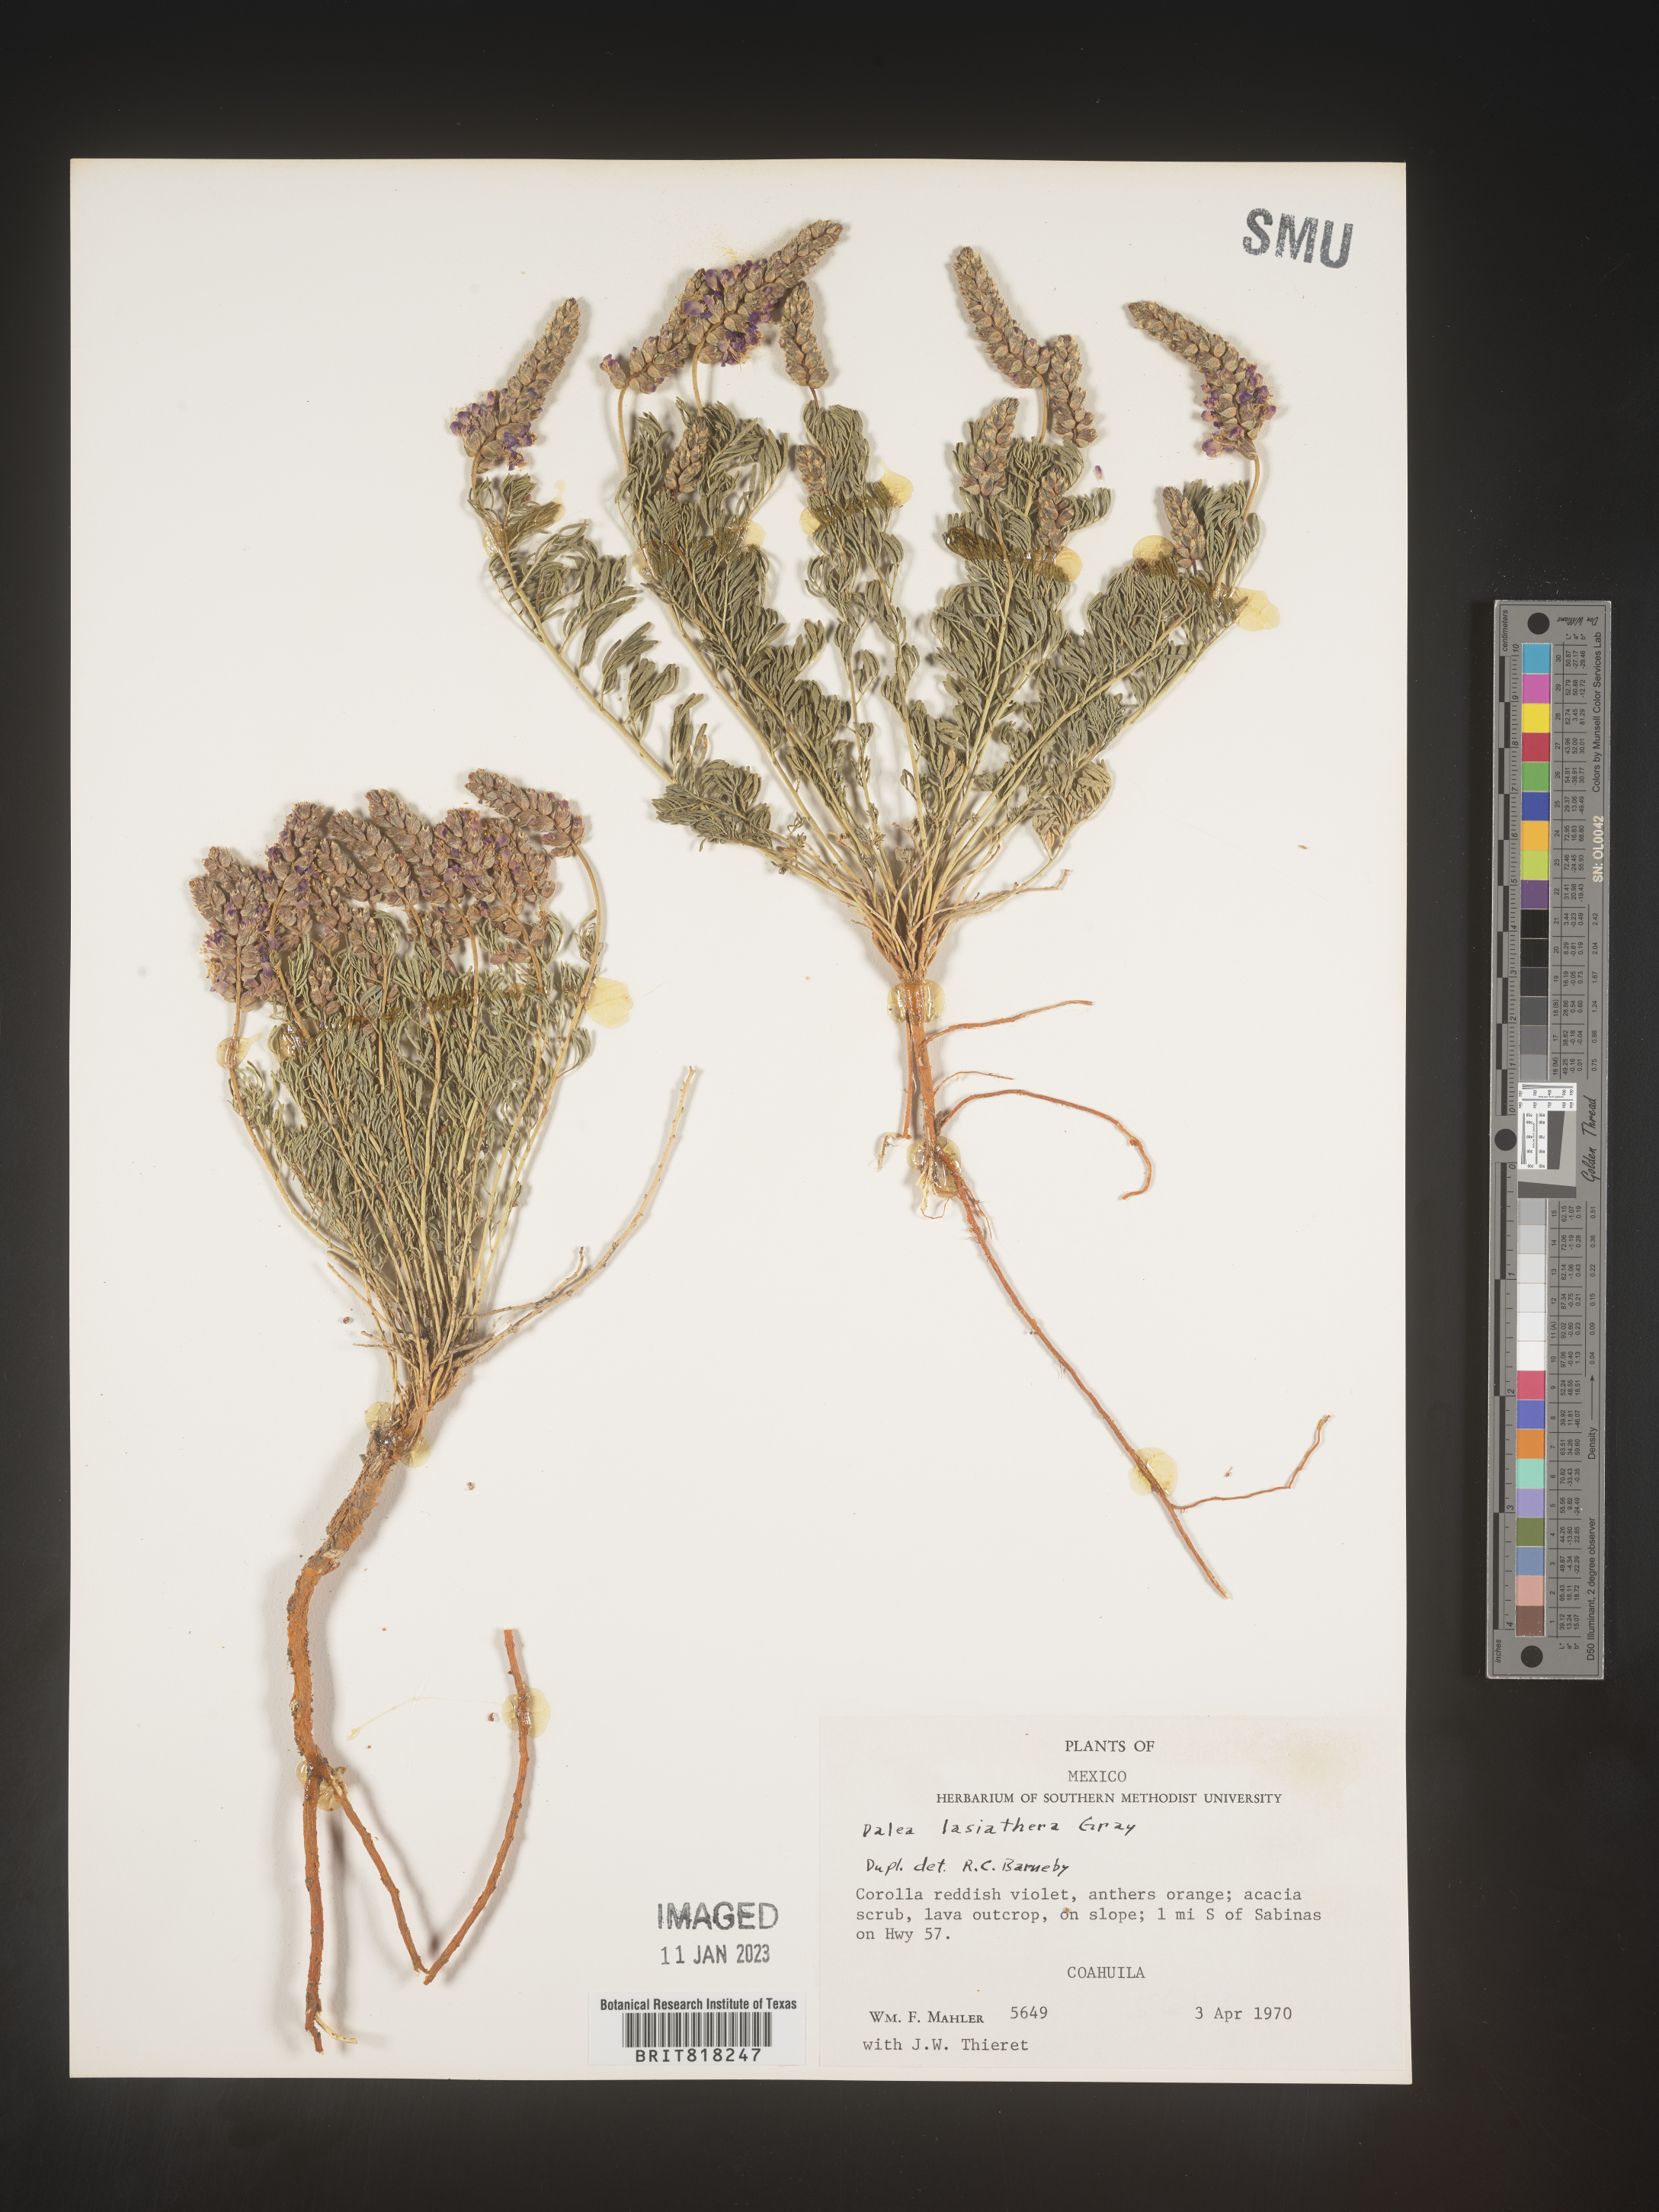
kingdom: Plantae
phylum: Tracheophyta
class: Magnoliopsida
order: Fabales
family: Fabaceae
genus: Dalea
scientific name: Dalea
